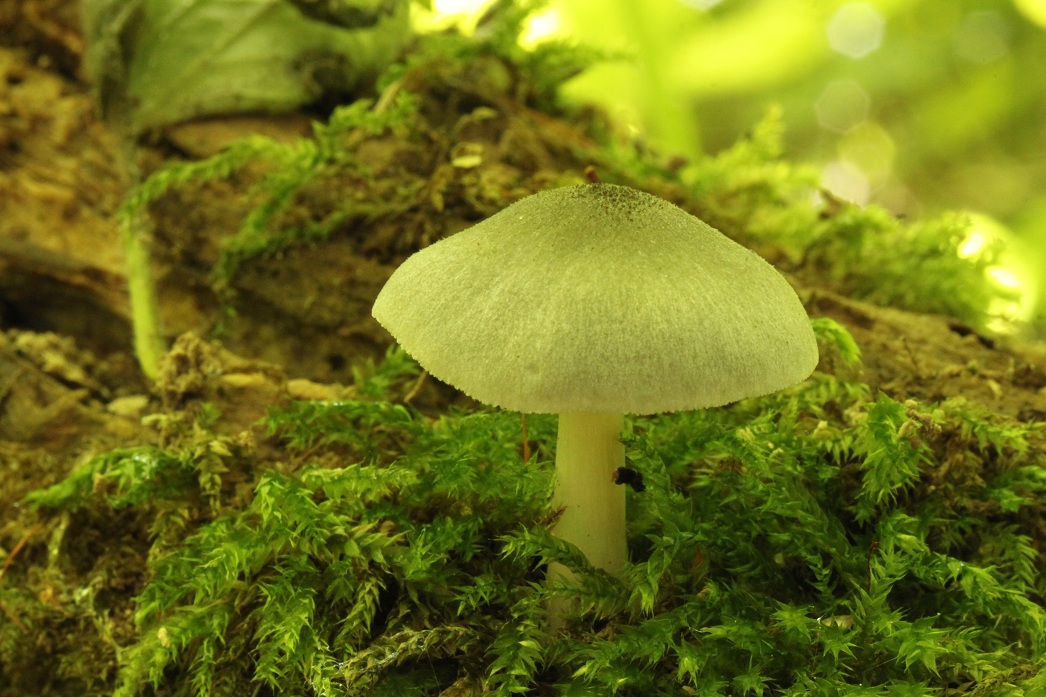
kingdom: Fungi
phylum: Basidiomycota
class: Agaricomycetes
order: Agaricales
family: Pluteaceae
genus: Pluteus
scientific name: Pluteus salicinus
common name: stiv skærmhat
